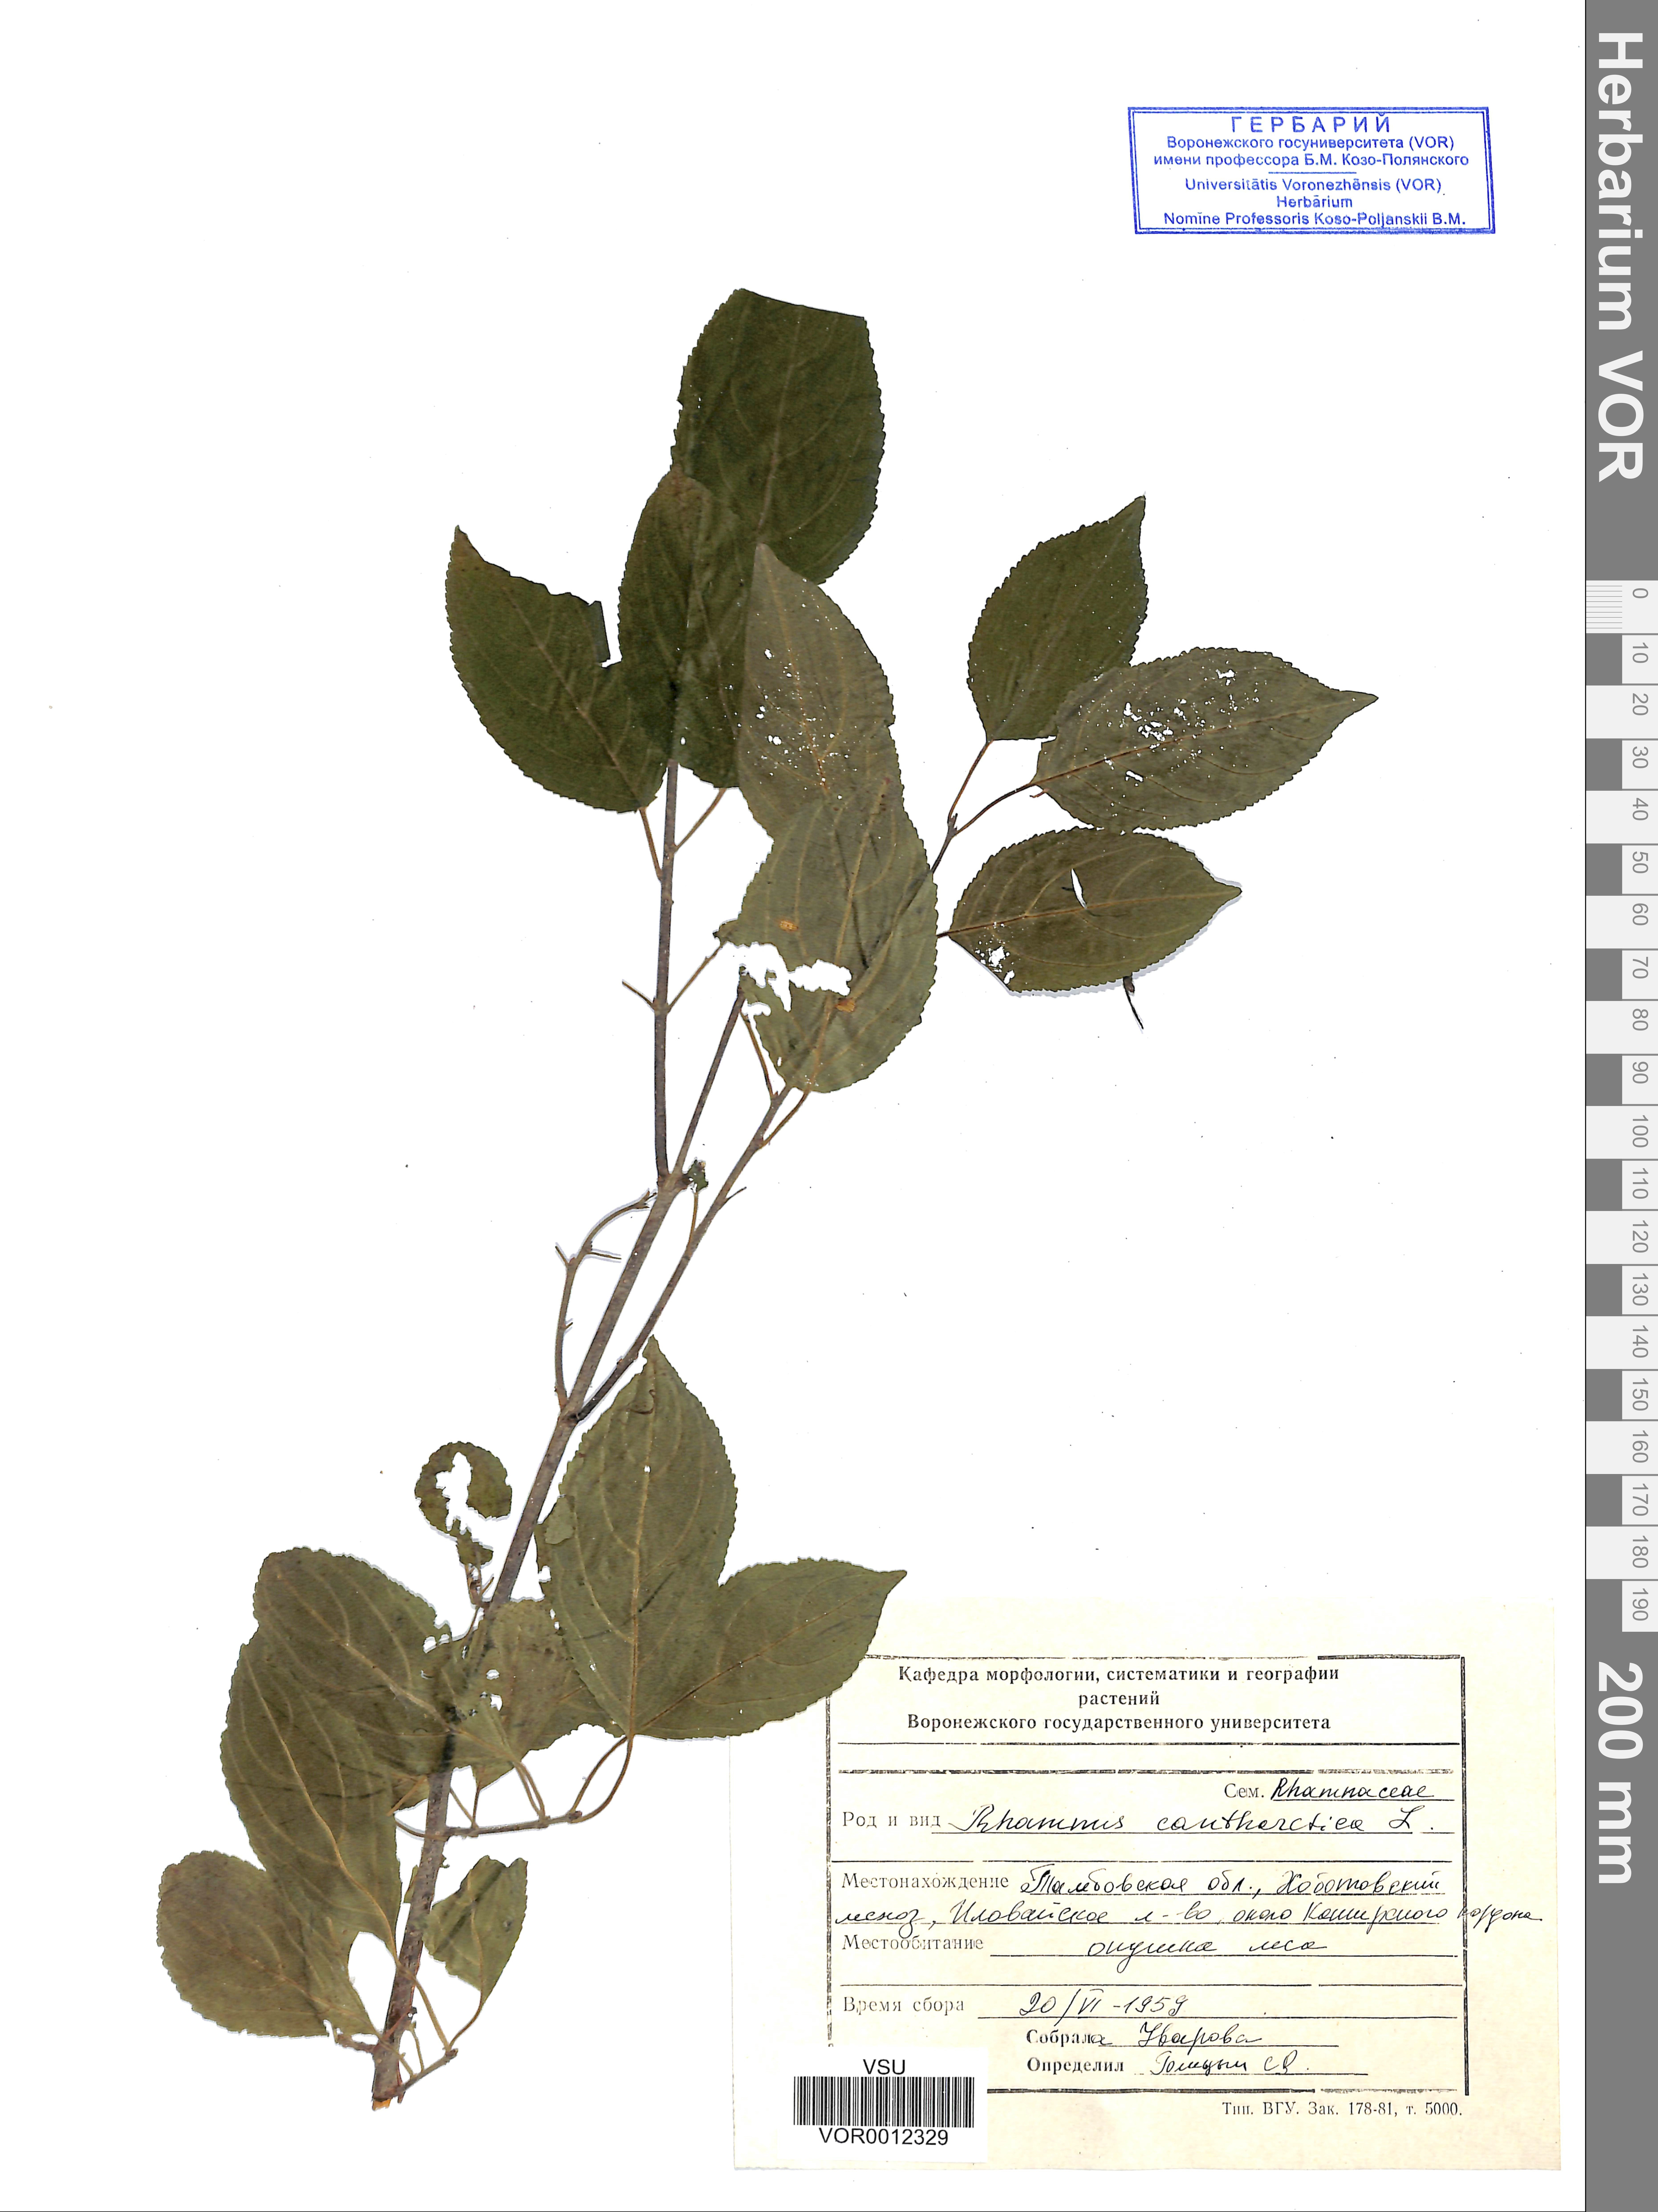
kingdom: Plantae
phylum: Tracheophyta
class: Magnoliopsida
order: Rosales
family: Rhamnaceae
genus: Rhamnus
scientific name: Rhamnus cathartica
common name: Common buckthorn
